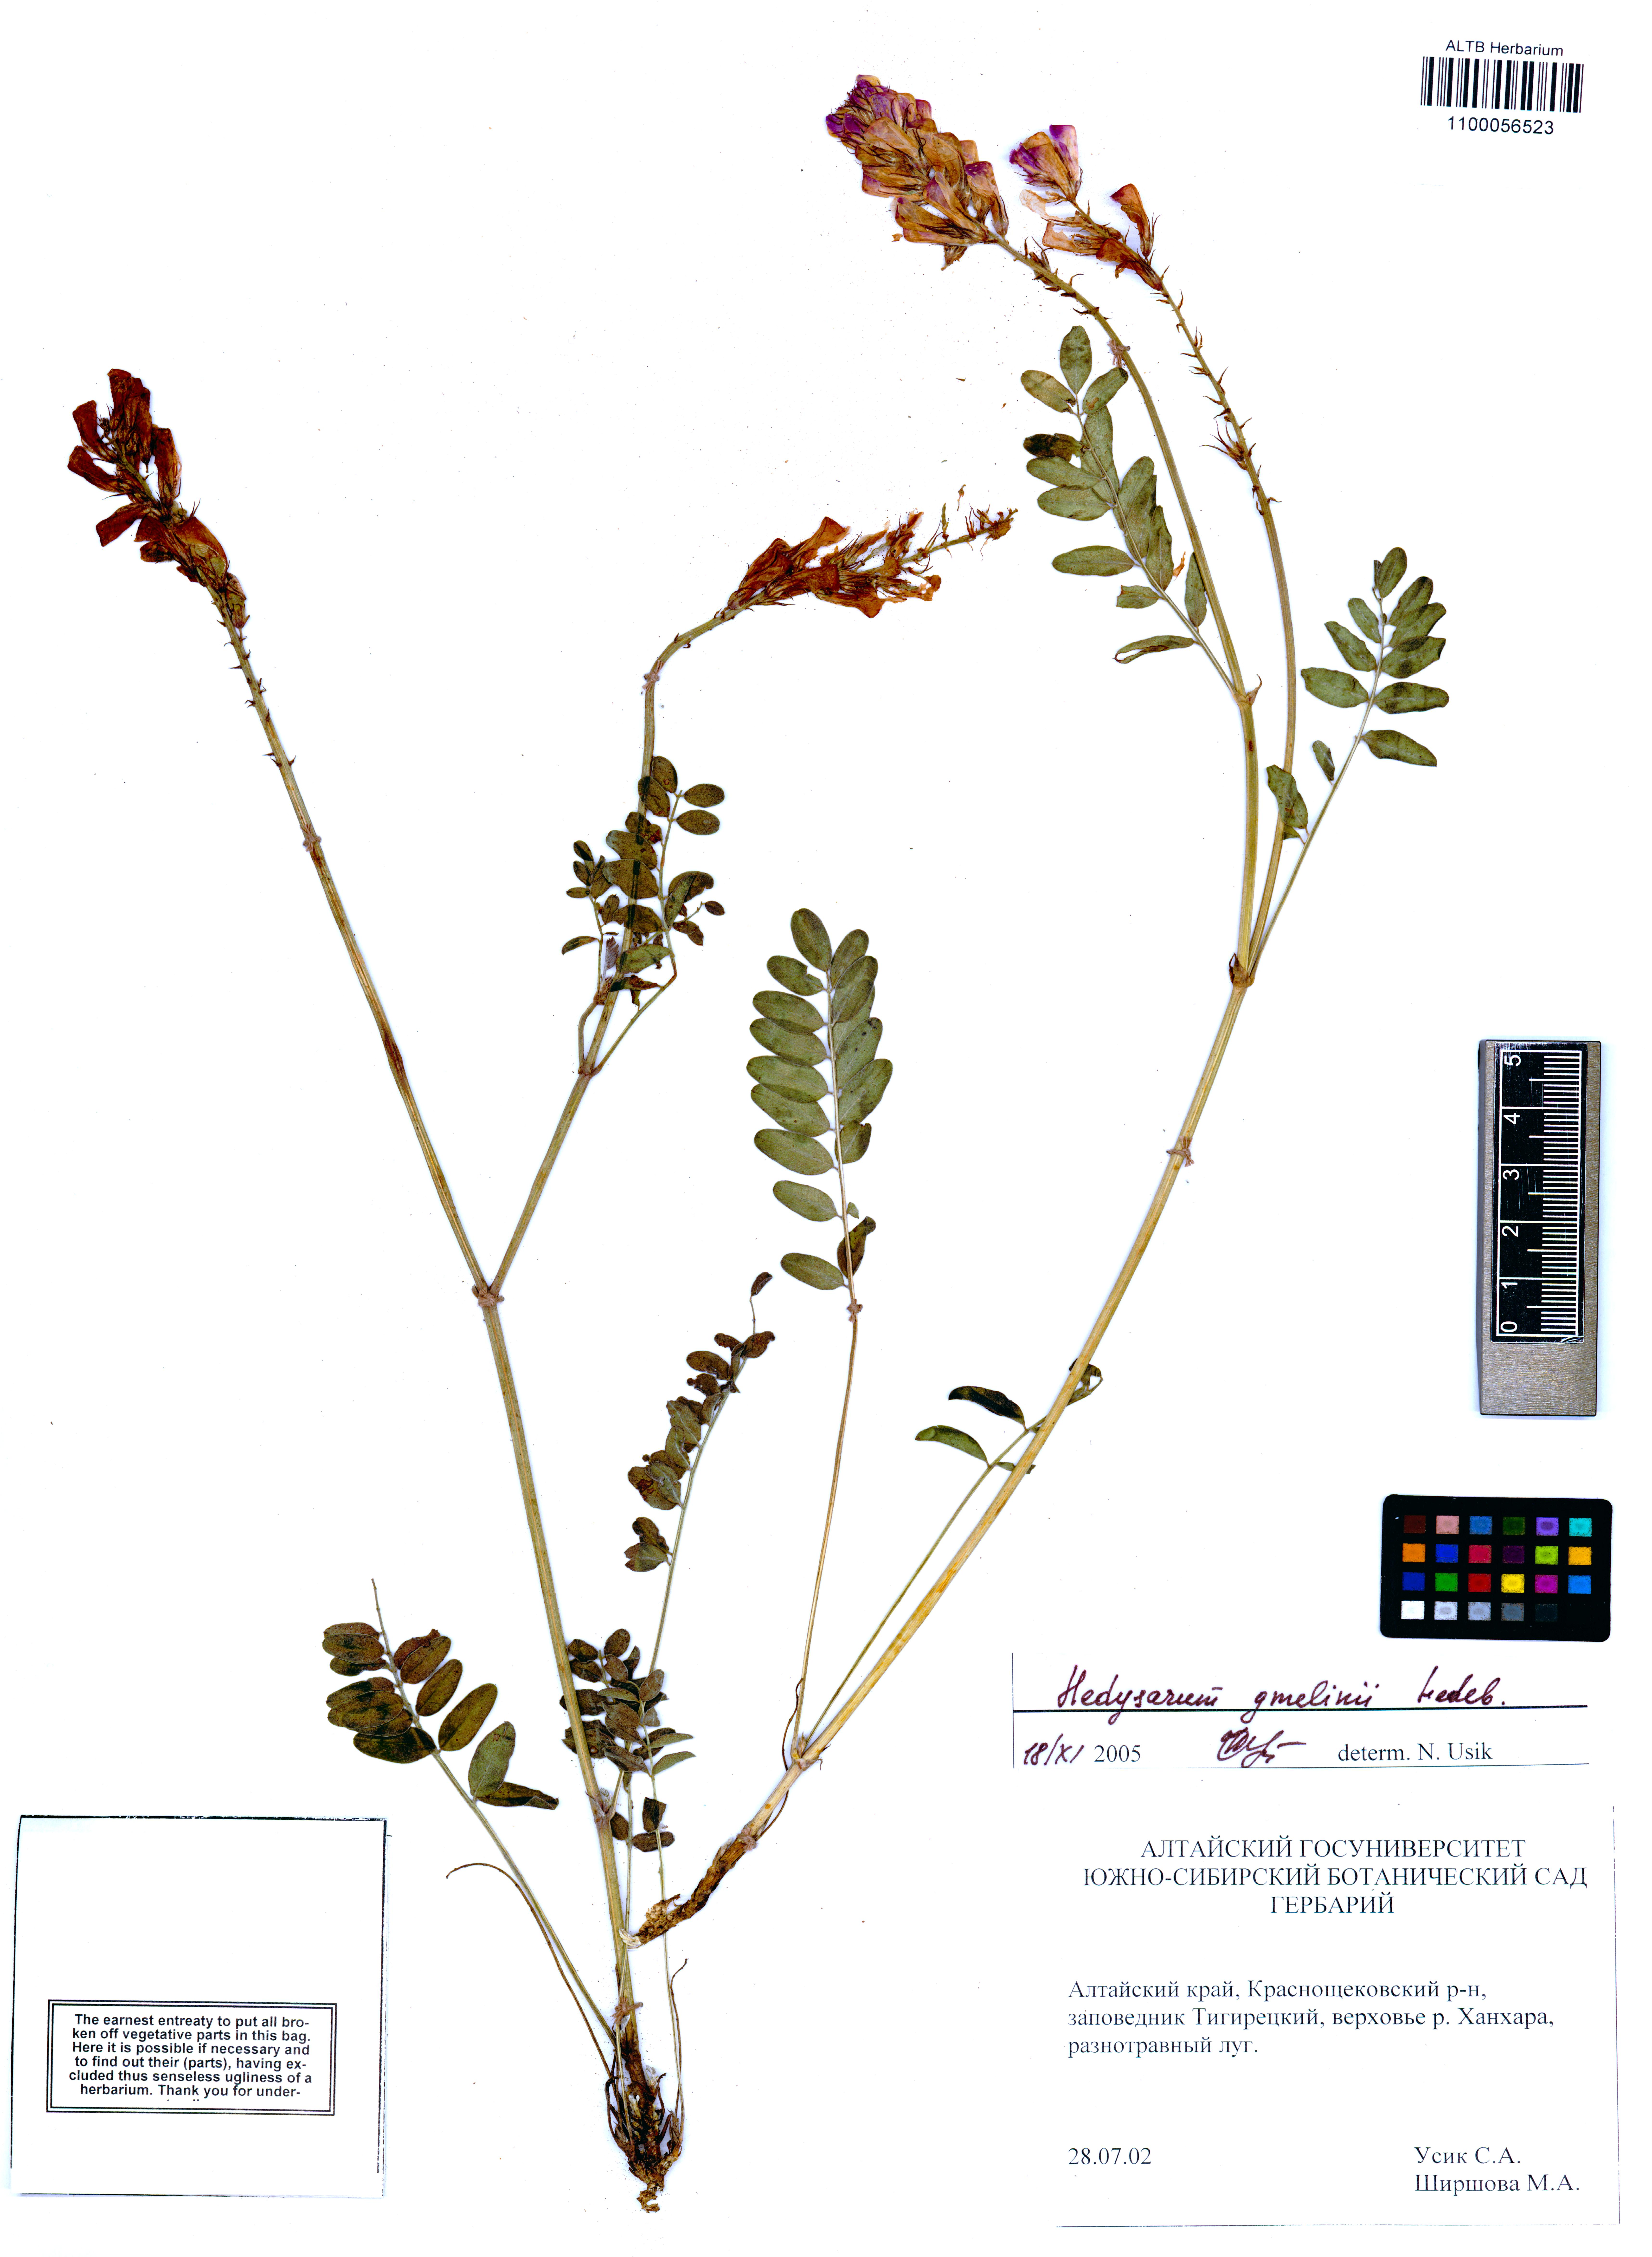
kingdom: Plantae
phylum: Tracheophyta
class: Magnoliopsida
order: Fabales
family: Fabaceae
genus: Hedysarum
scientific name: Hedysarum gmelinii
